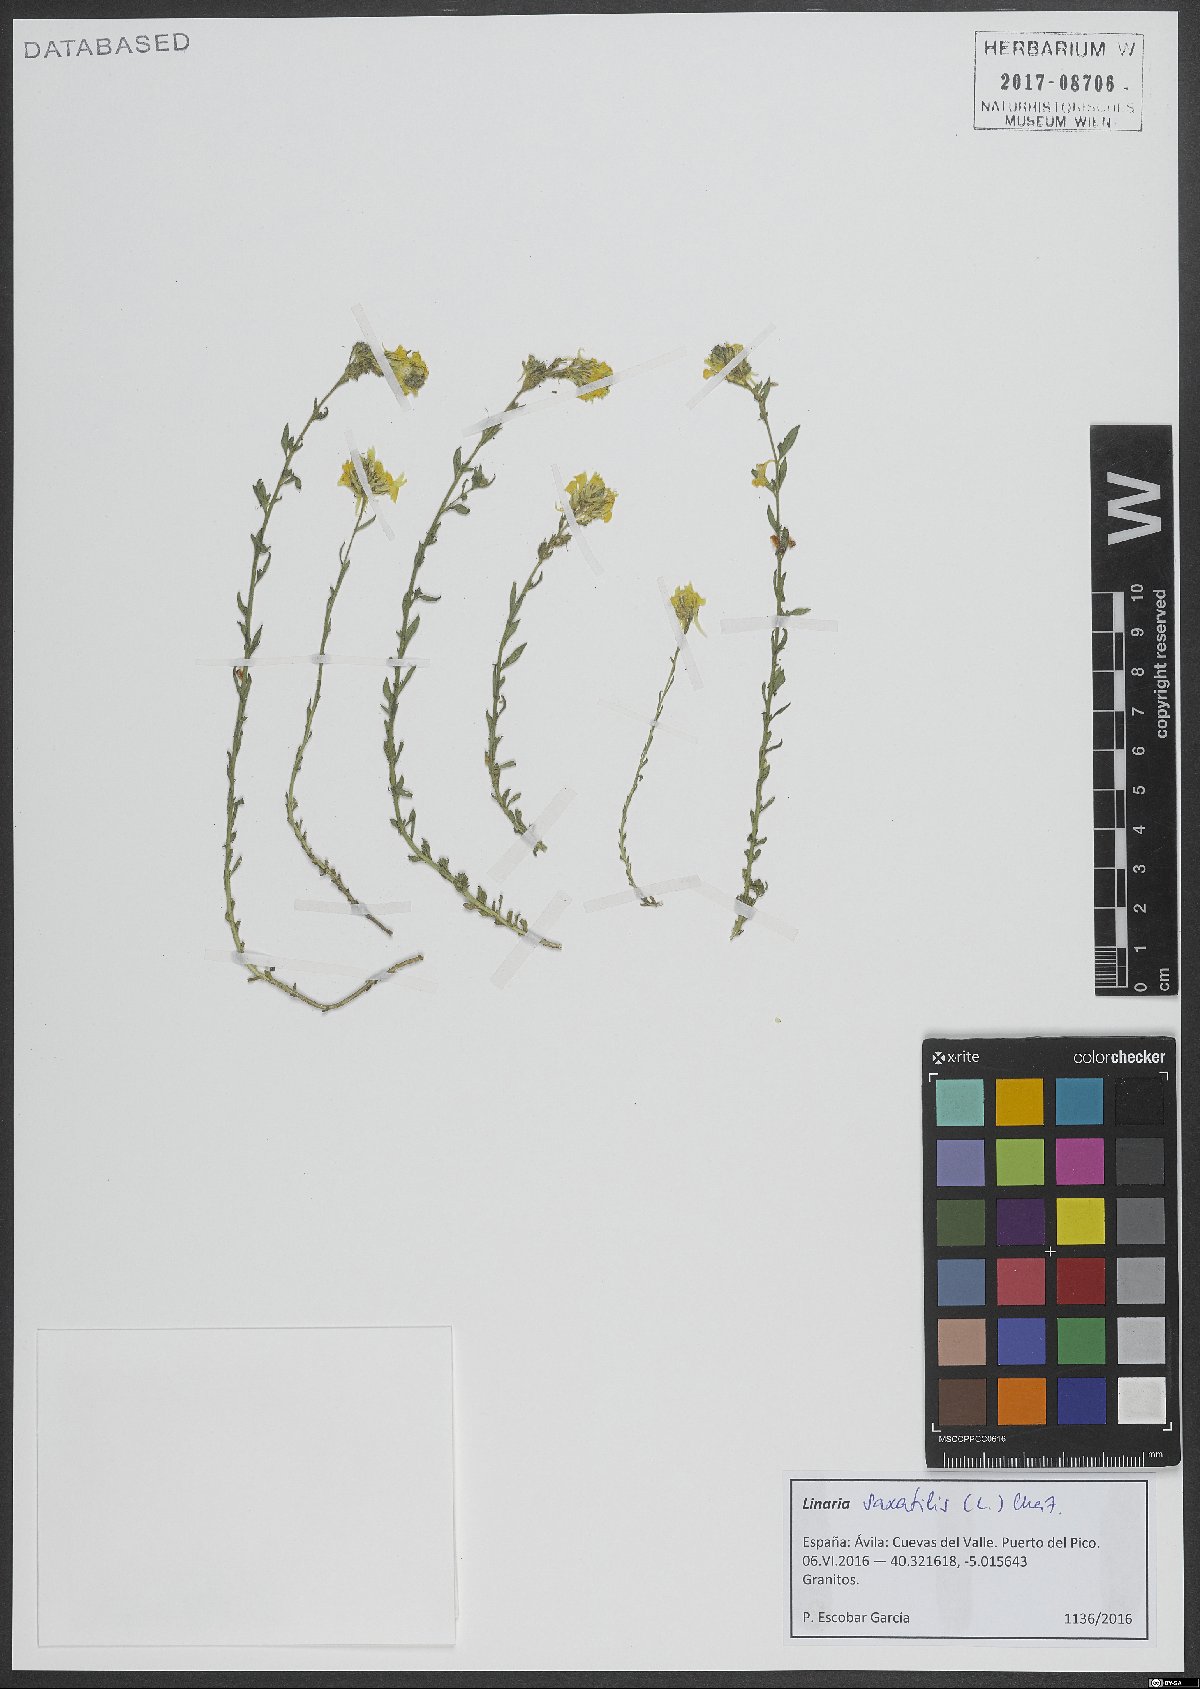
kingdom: Plantae
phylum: Tracheophyta
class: Magnoliopsida
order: Lamiales
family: Plantaginaceae
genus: Linaria
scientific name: Linaria saxatilis
